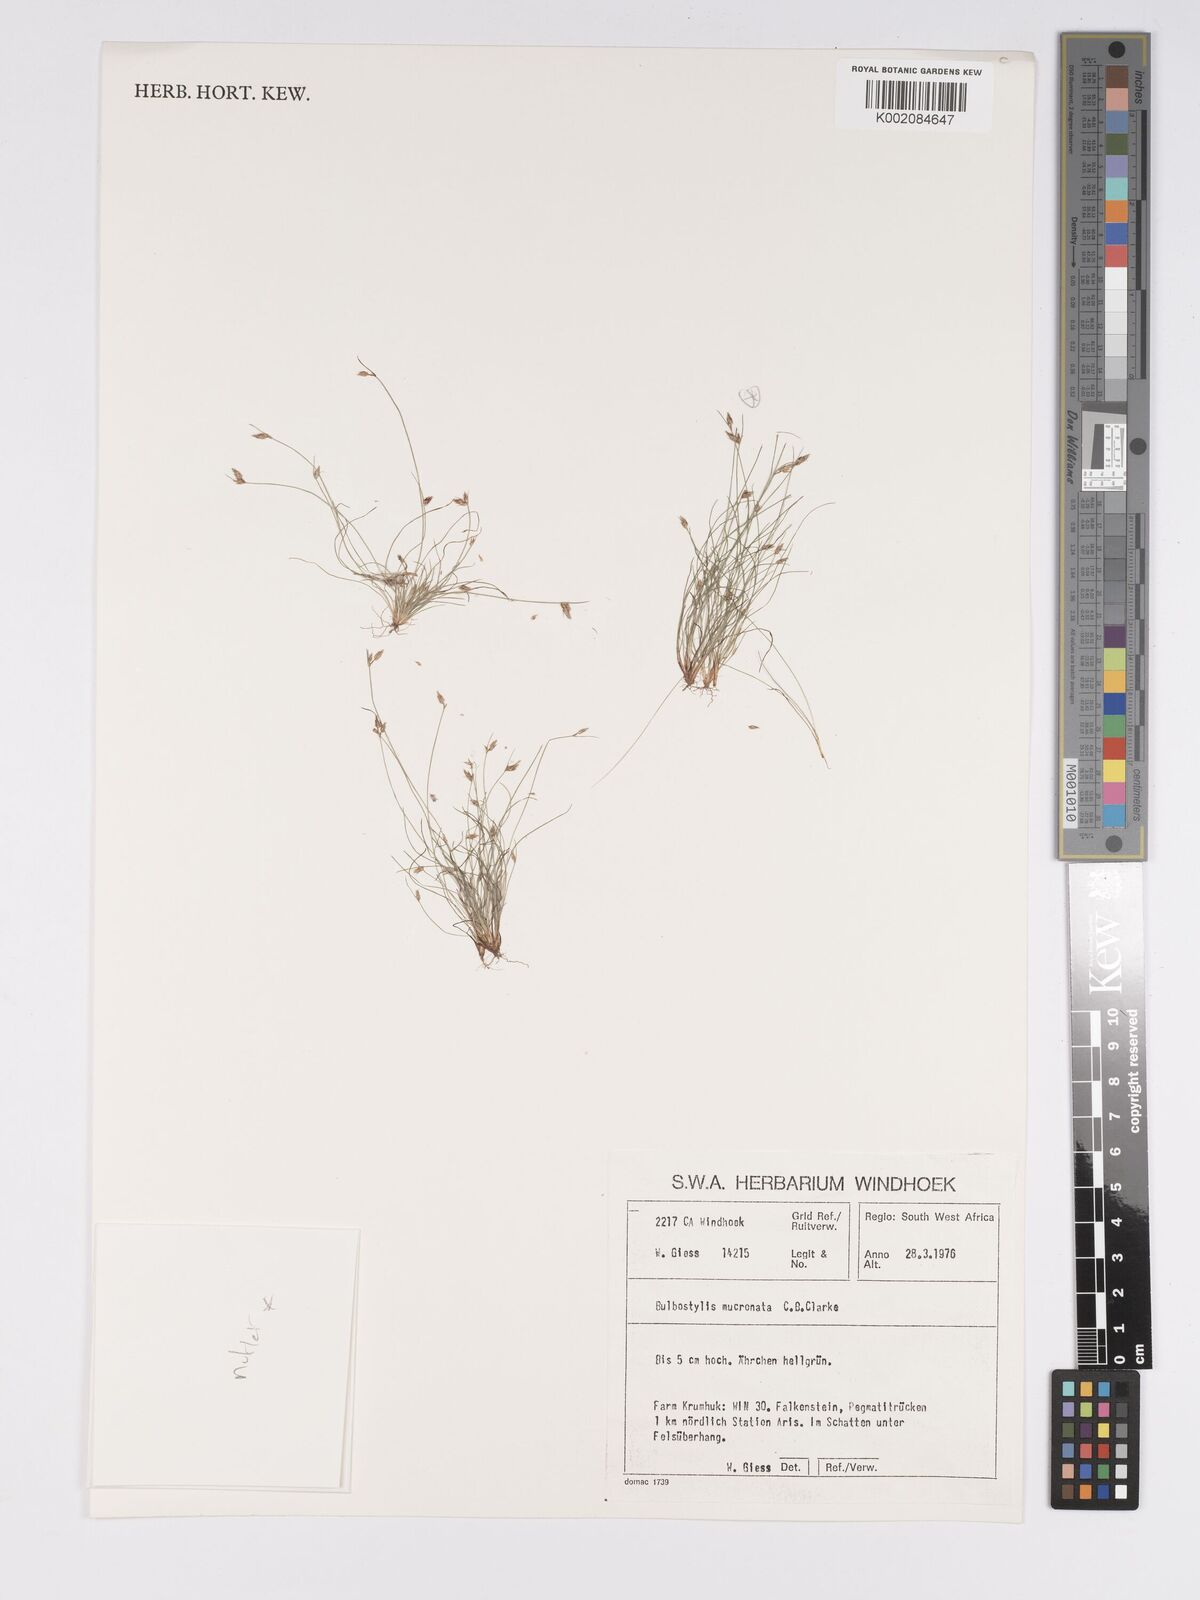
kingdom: Plantae
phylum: Tracheophyta
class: Liliopsida
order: Poales
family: Cyperaceae
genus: Bulbostylis
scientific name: Bulbostylis mucronata
